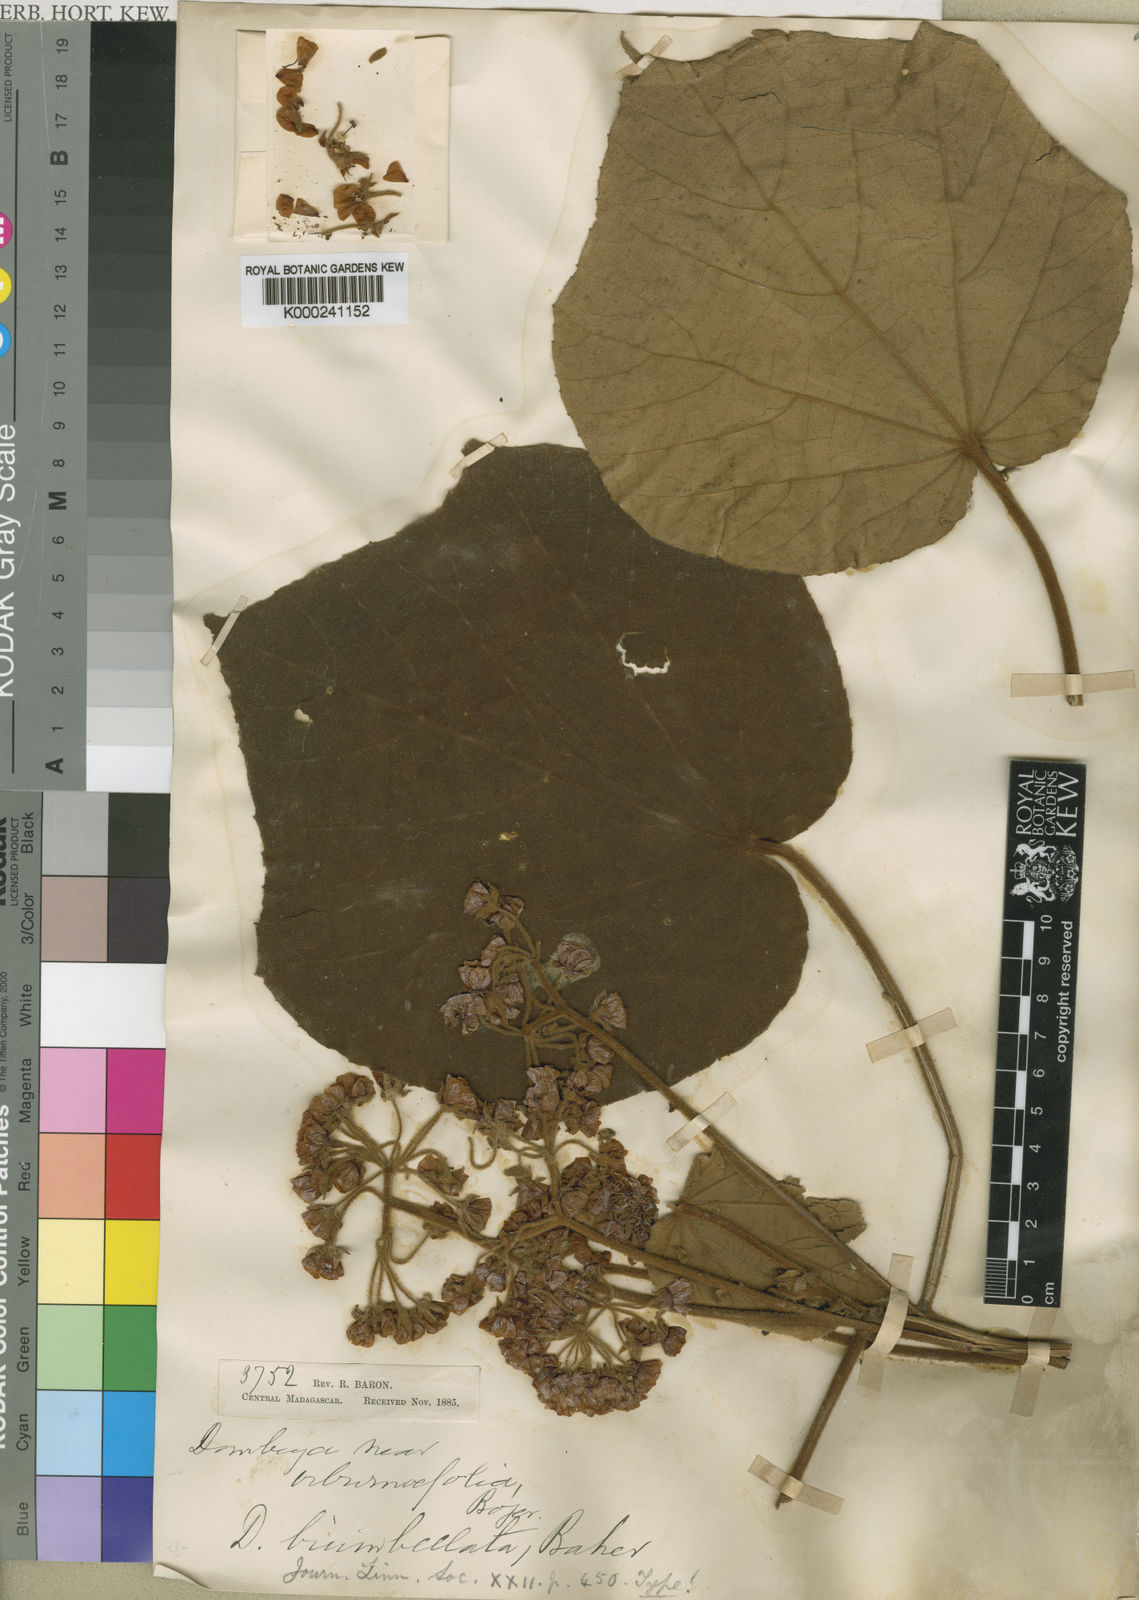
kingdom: Plantae
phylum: Tracheophyta
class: Magnoliopsida
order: Malvales
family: Malvaceae
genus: Dombeya
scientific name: Dombeya biumbellata
